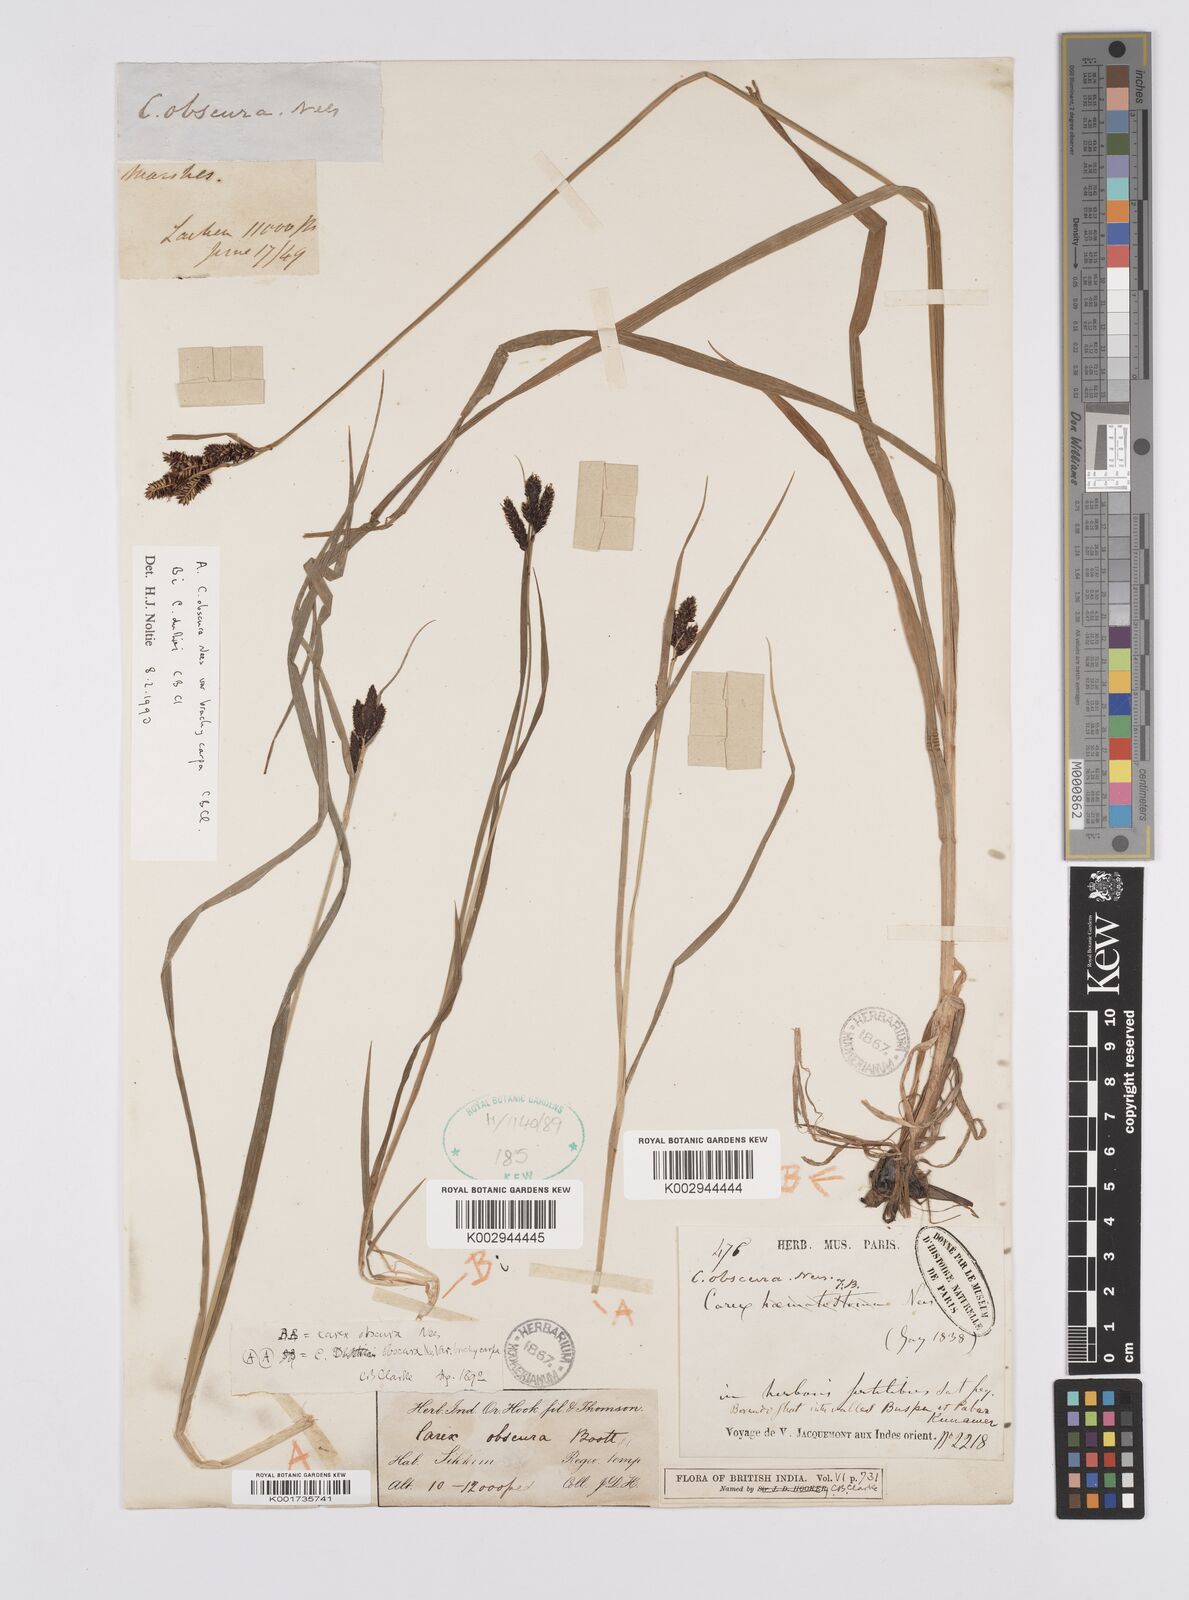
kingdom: Plantae
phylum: Tracheophyta
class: Liliopsida
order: Poales
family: Cyperaceae
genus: Carex
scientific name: Carex obscura
